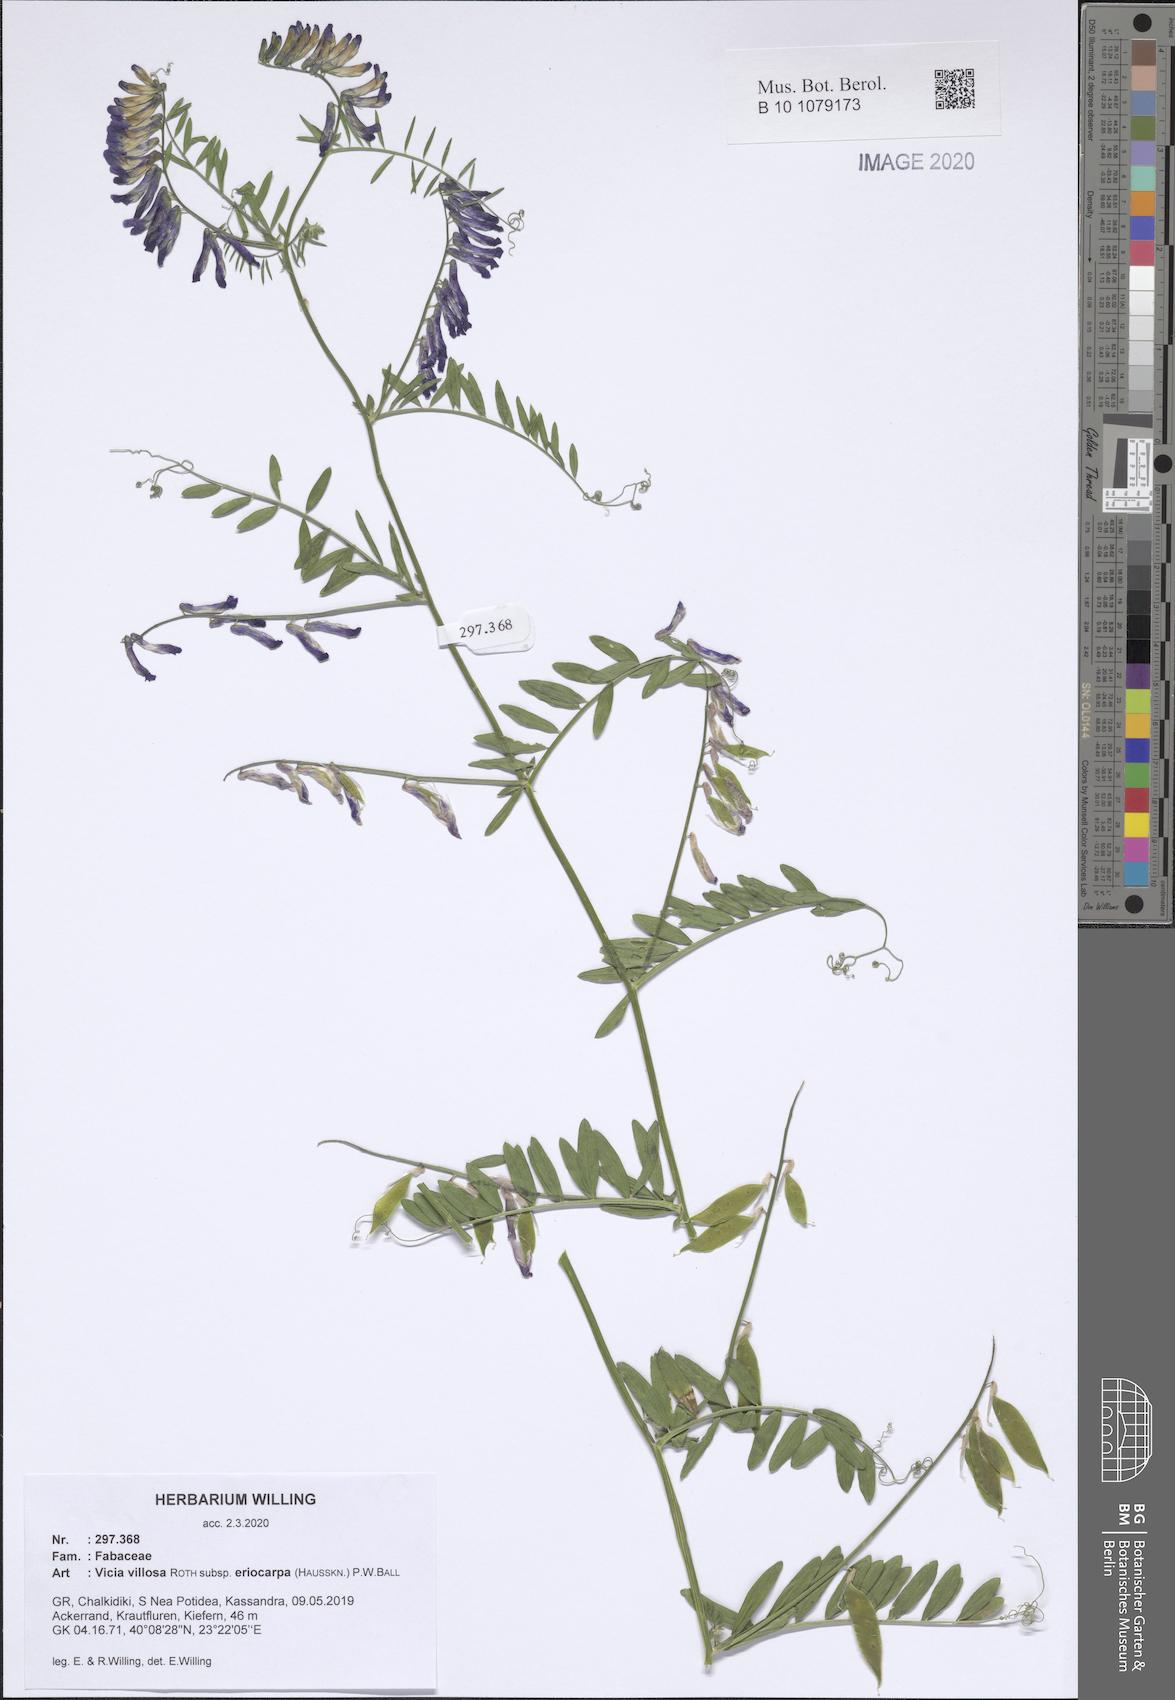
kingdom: Plantae
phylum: Tracheophyta
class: Magnoliopsida
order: Fabales
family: Fabaceae
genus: Vicia
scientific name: Vicia eriocarpa
